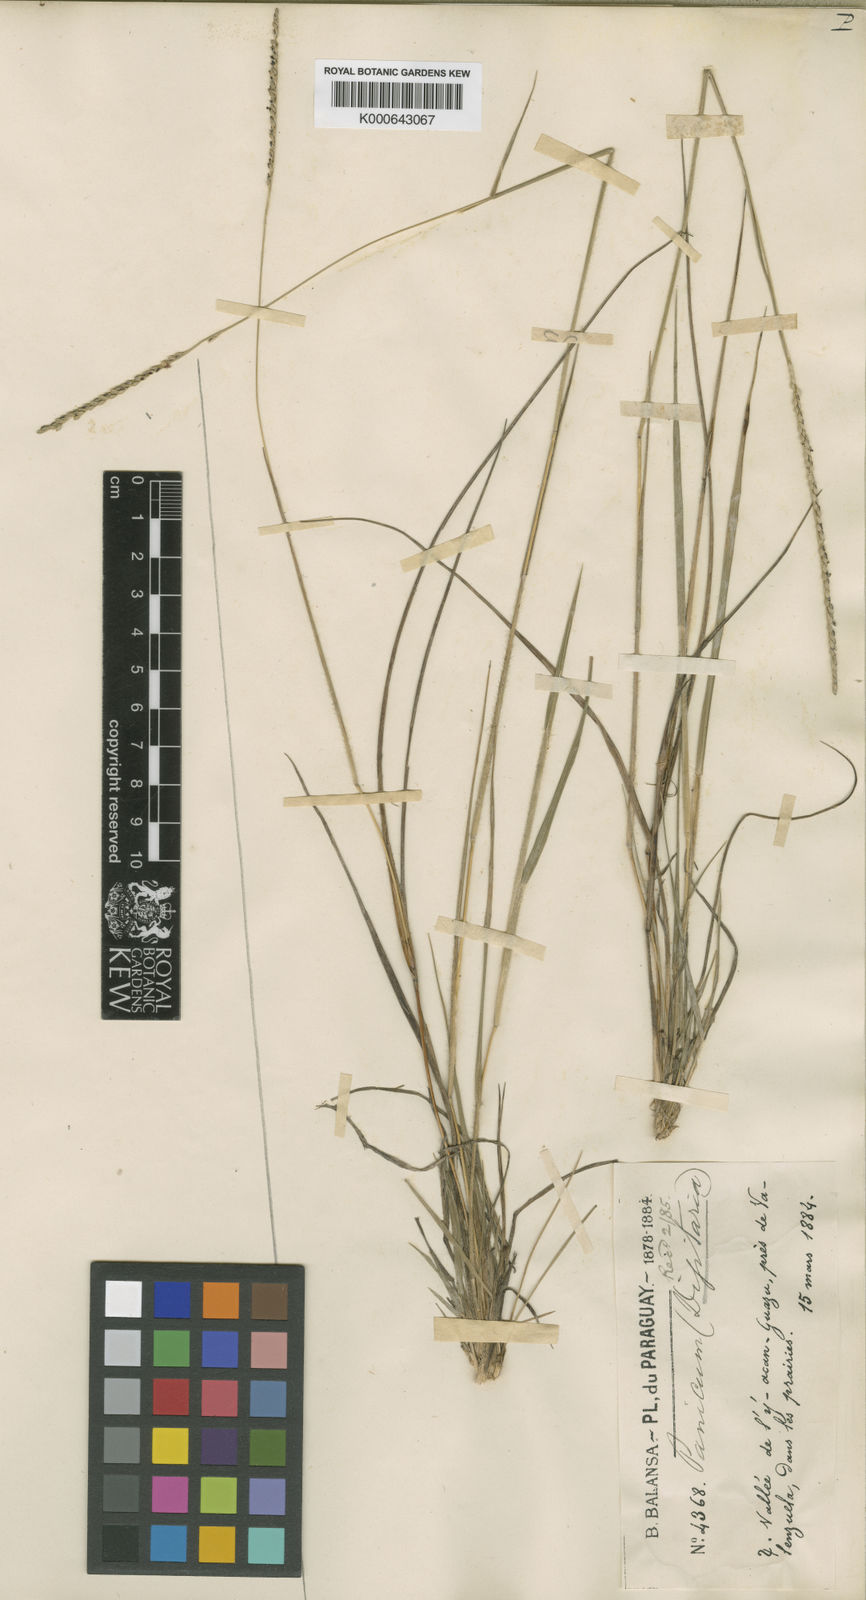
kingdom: Plantae
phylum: Tracheophyta
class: Liliopsida
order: Poales
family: Poaceae
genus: Digitaria
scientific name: Digitaria corynotricha
